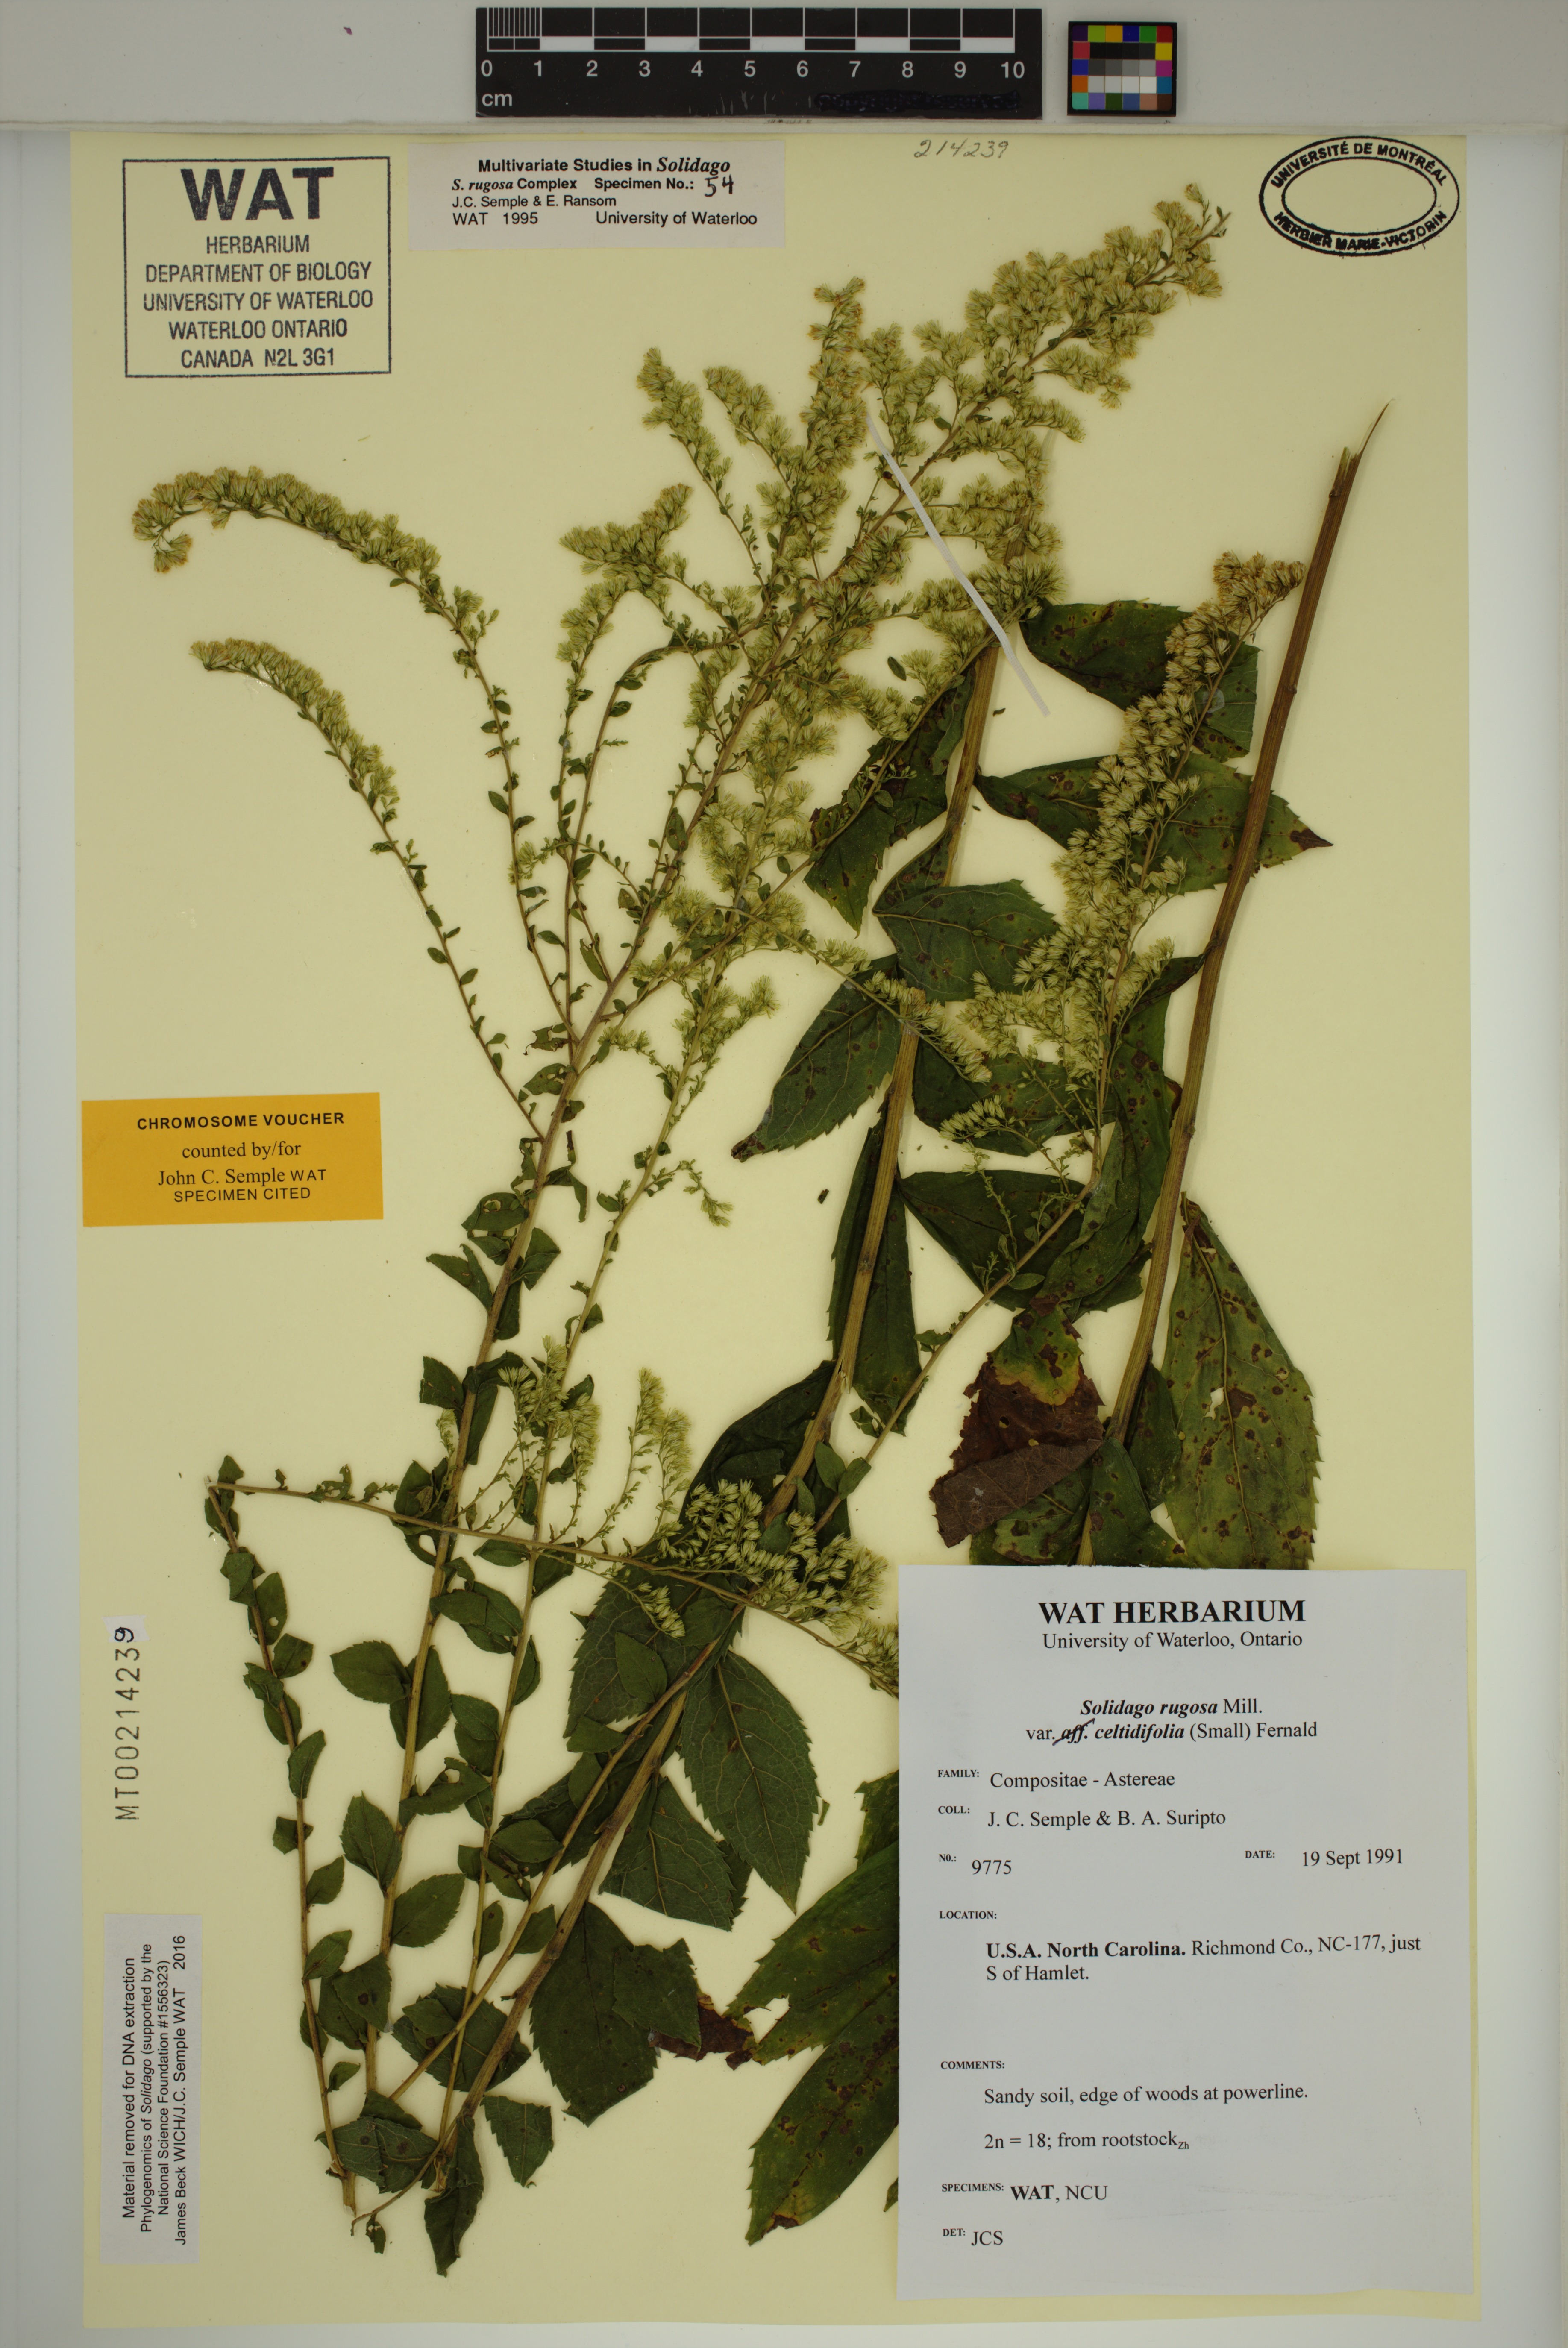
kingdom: Plantae
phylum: Tracheophyta
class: Magnoliopsida
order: Asterales
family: Asteraceae
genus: Solidago
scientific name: Solidago rugosa
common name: Rough-stemmed goldenrod
